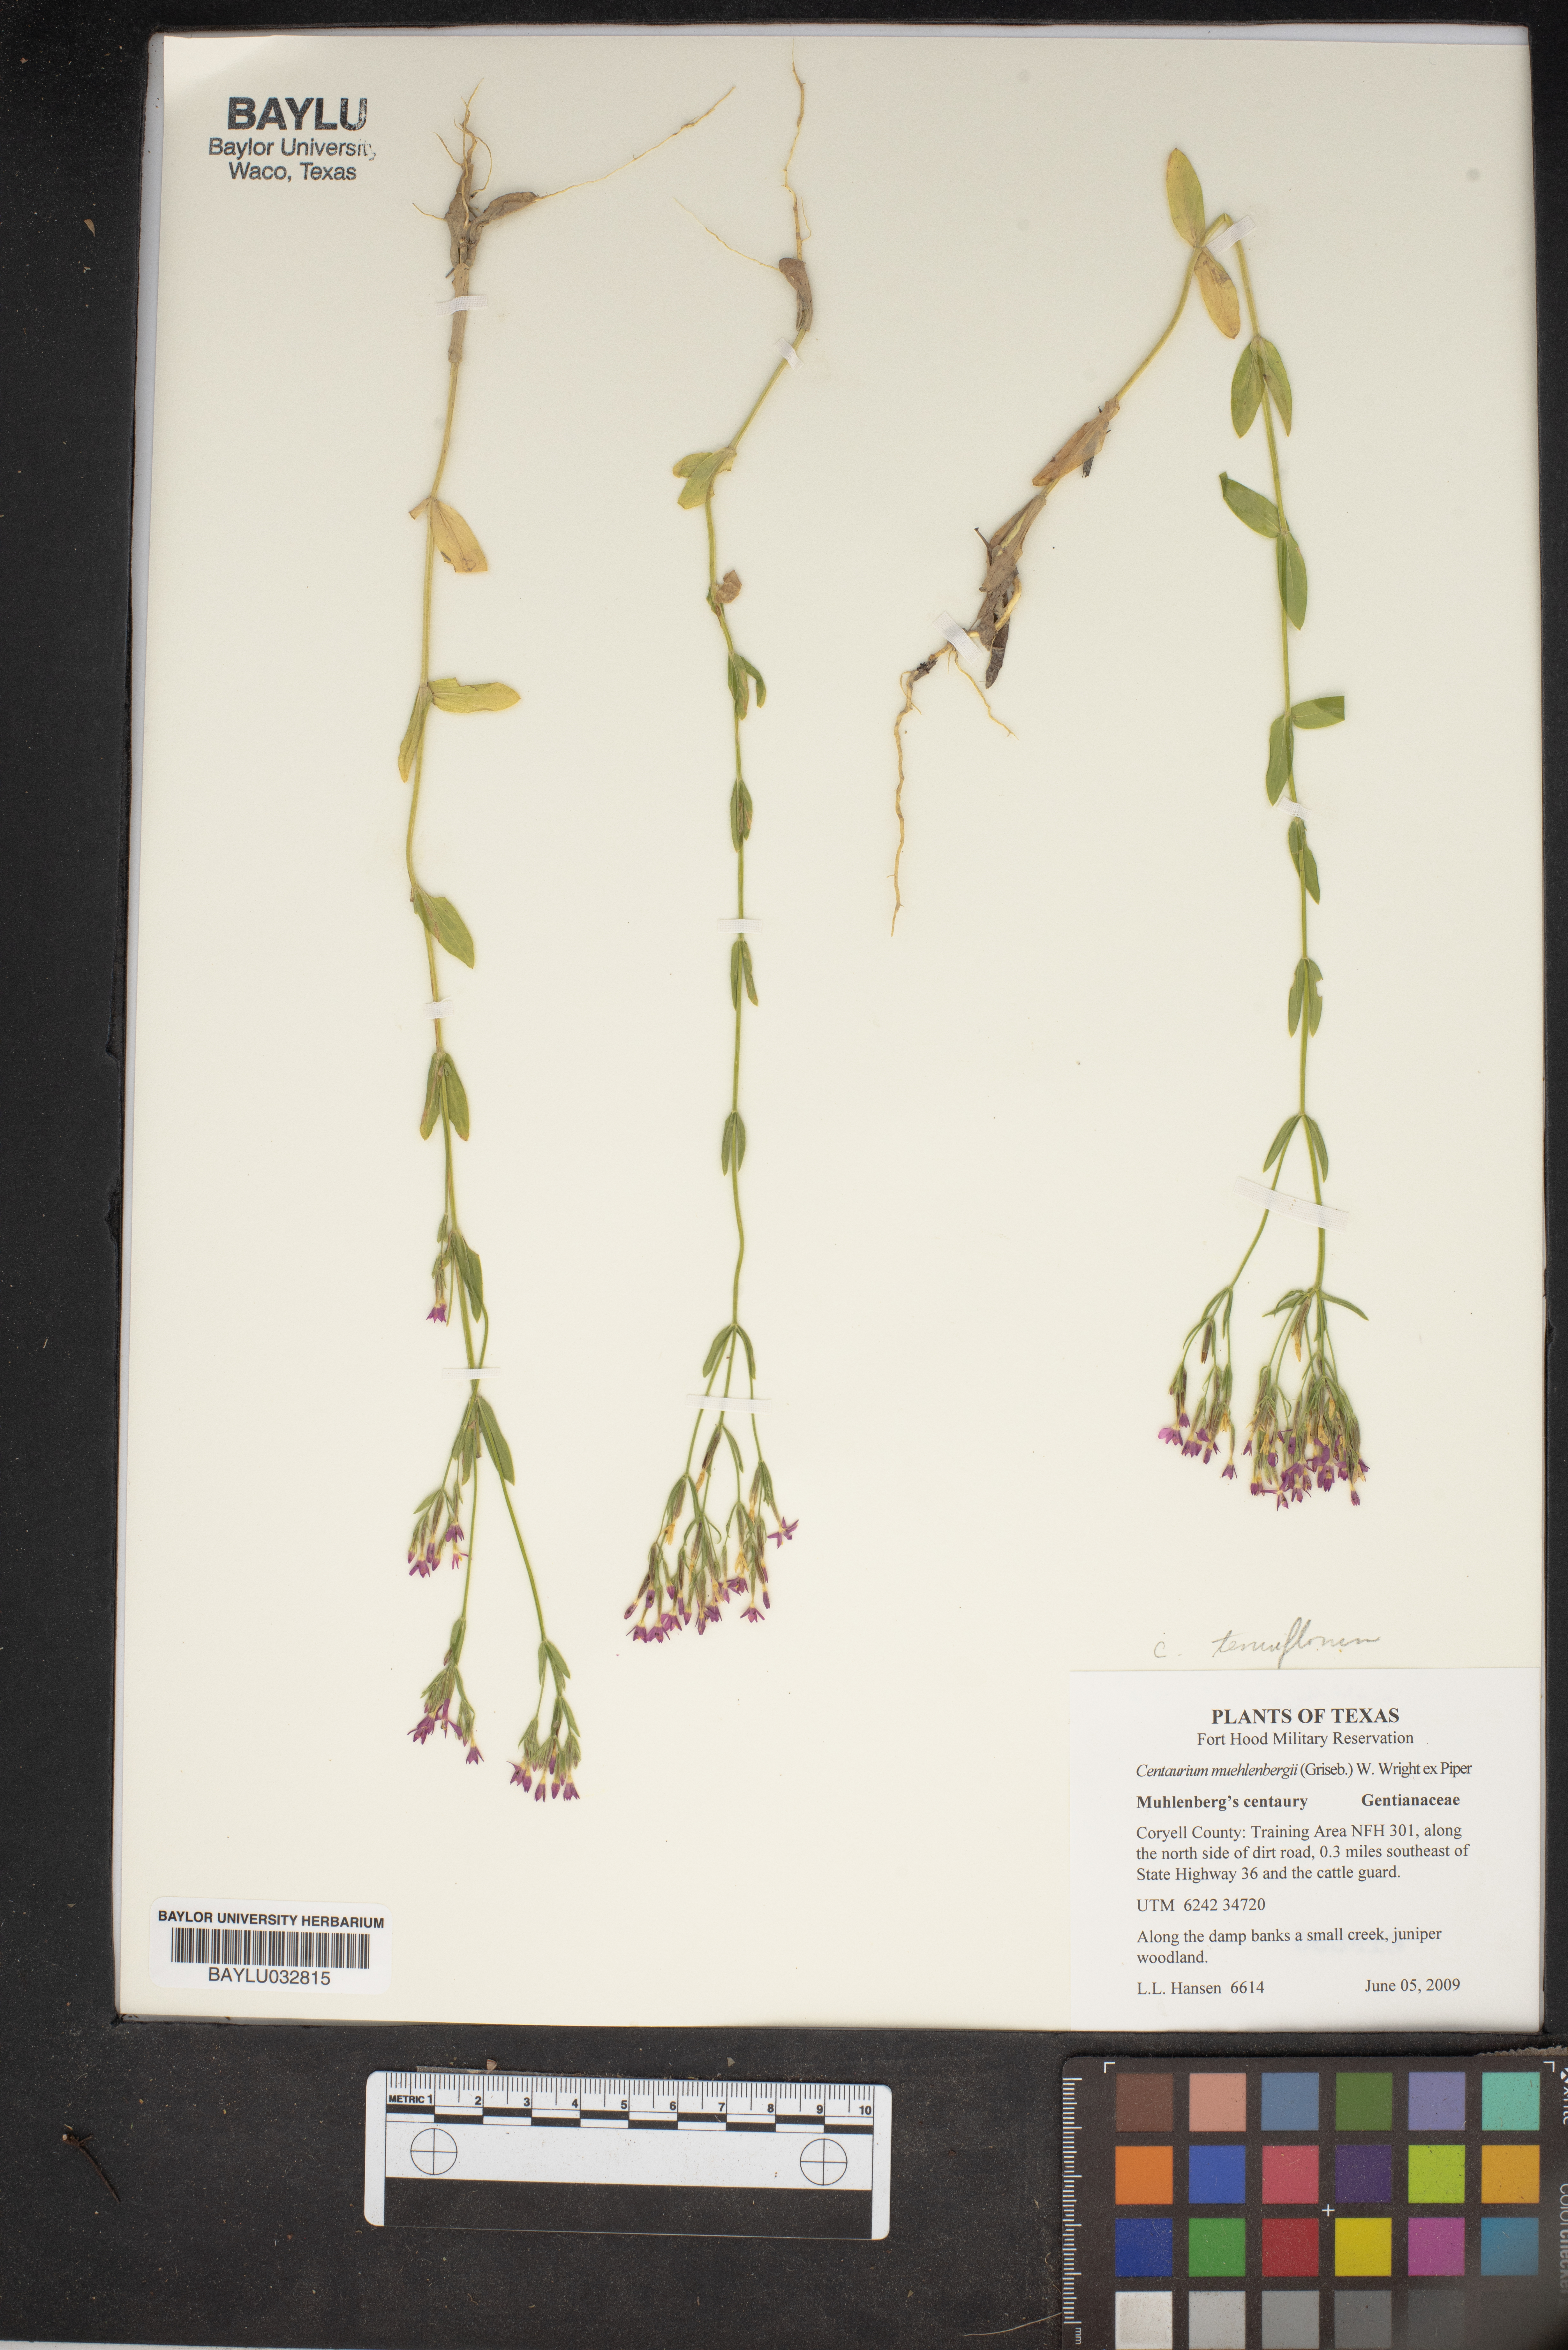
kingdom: Plantae
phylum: Tracheophyta
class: Magnoliopsida
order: Gentianales
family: Gentianaceae
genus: Zeltnera
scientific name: Zeltnera muhlenbergii
